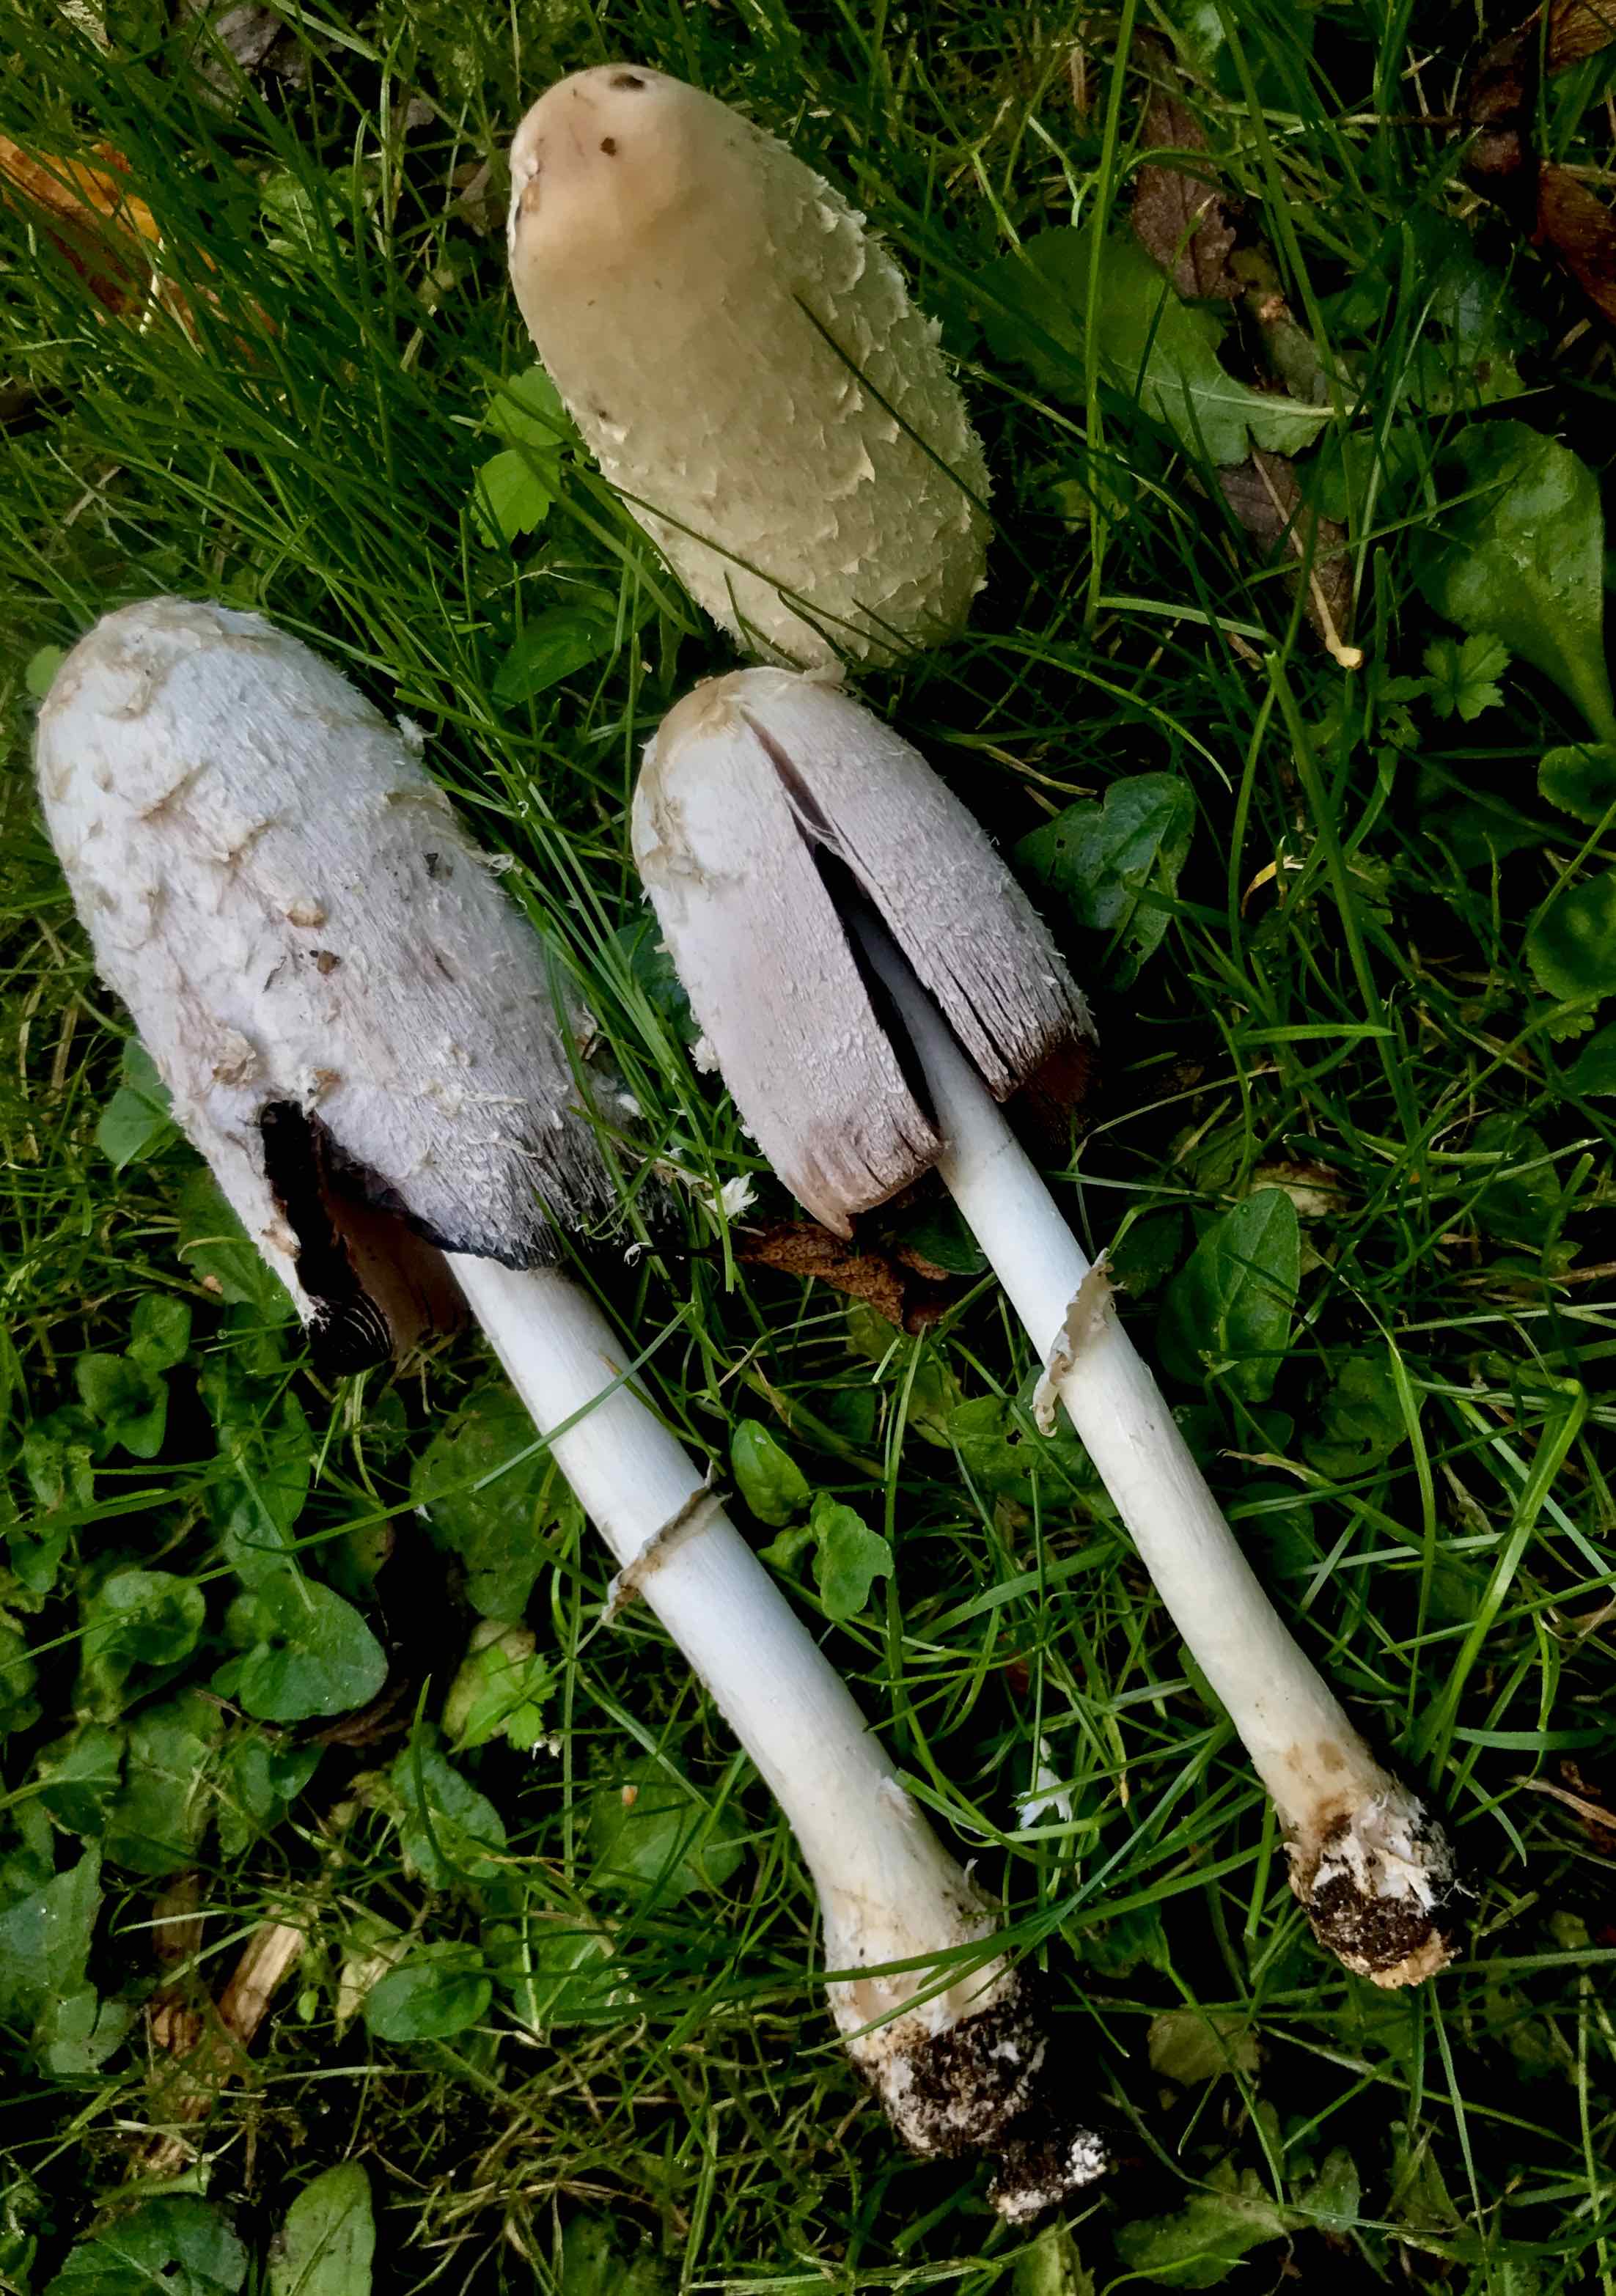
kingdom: Fungi
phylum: Basidiomycota
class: Agaricomycetes
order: Agaricales
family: Agaricaceae
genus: Coprinus
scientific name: Coprinus comatus
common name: stor parykhat
